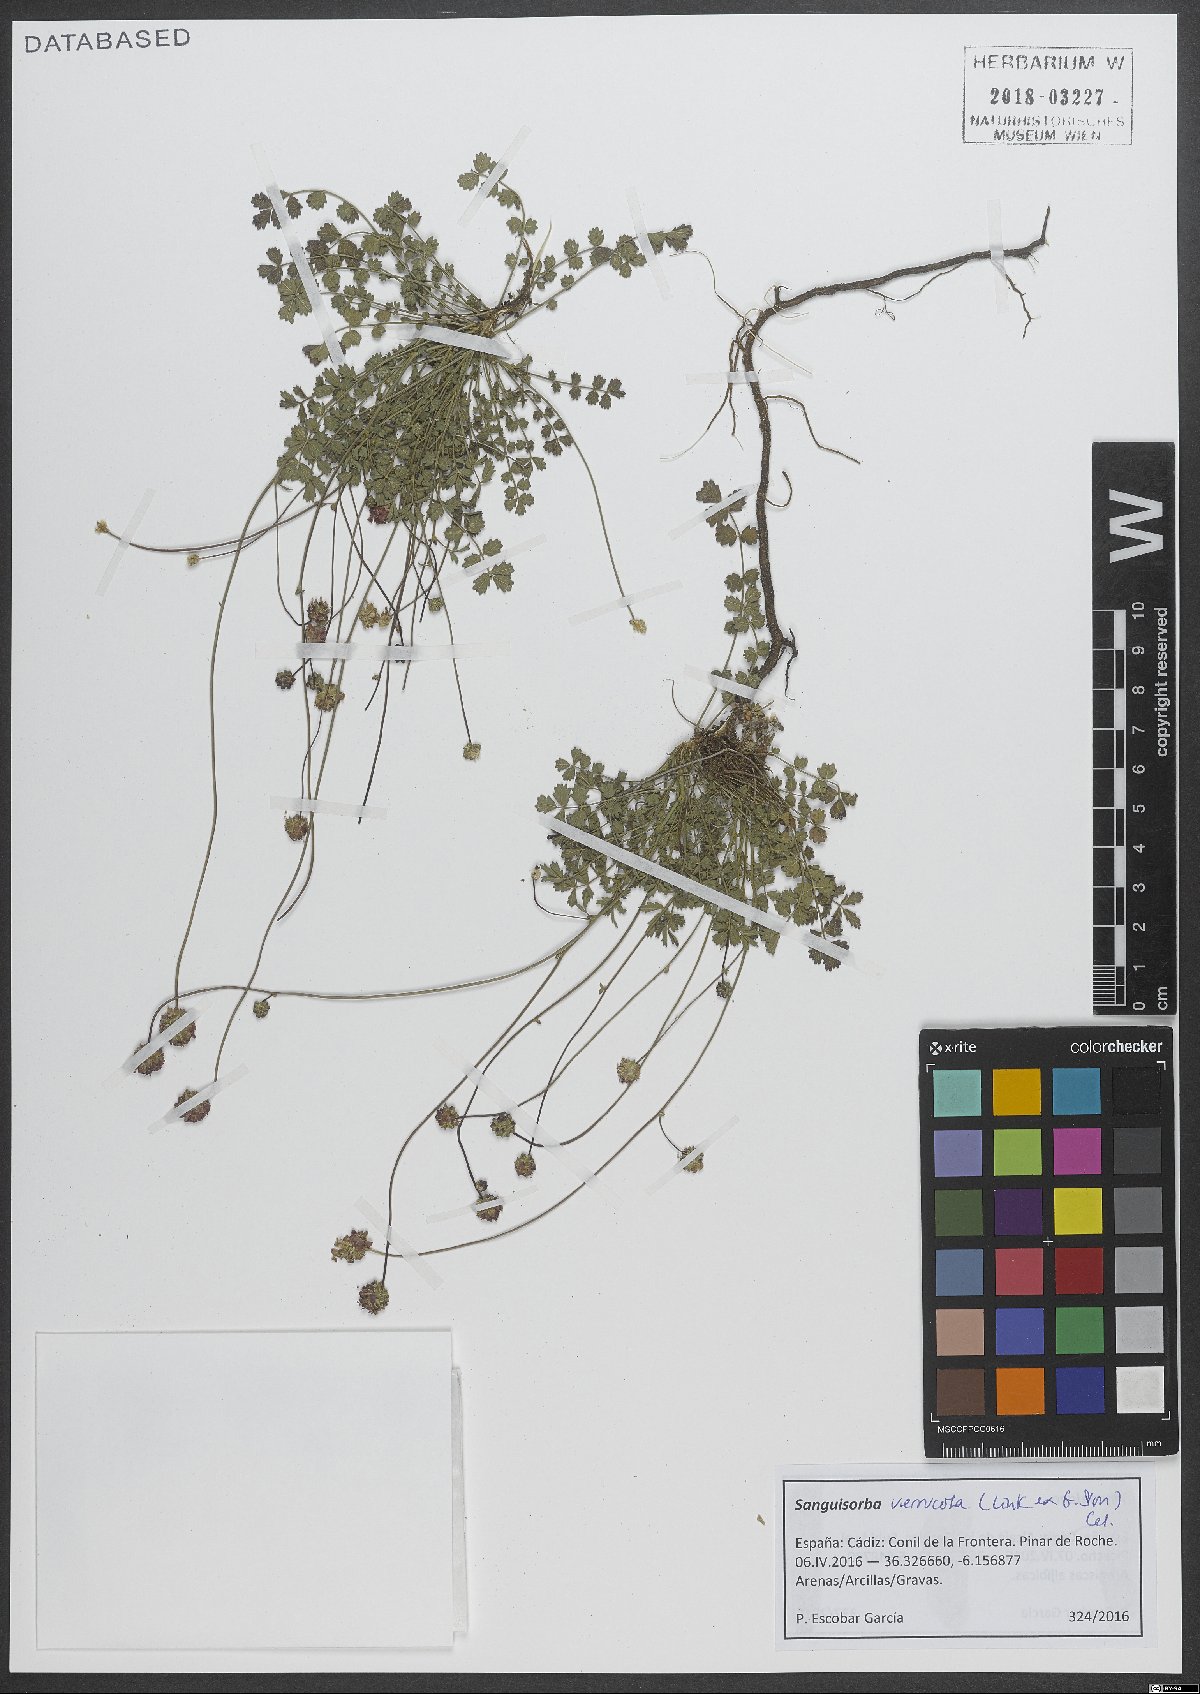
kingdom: Plantae
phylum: Tracheophyta
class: Magnoliopsida
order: Rosales
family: Rosaceae
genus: Poterium
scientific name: Poterium verrucosum
